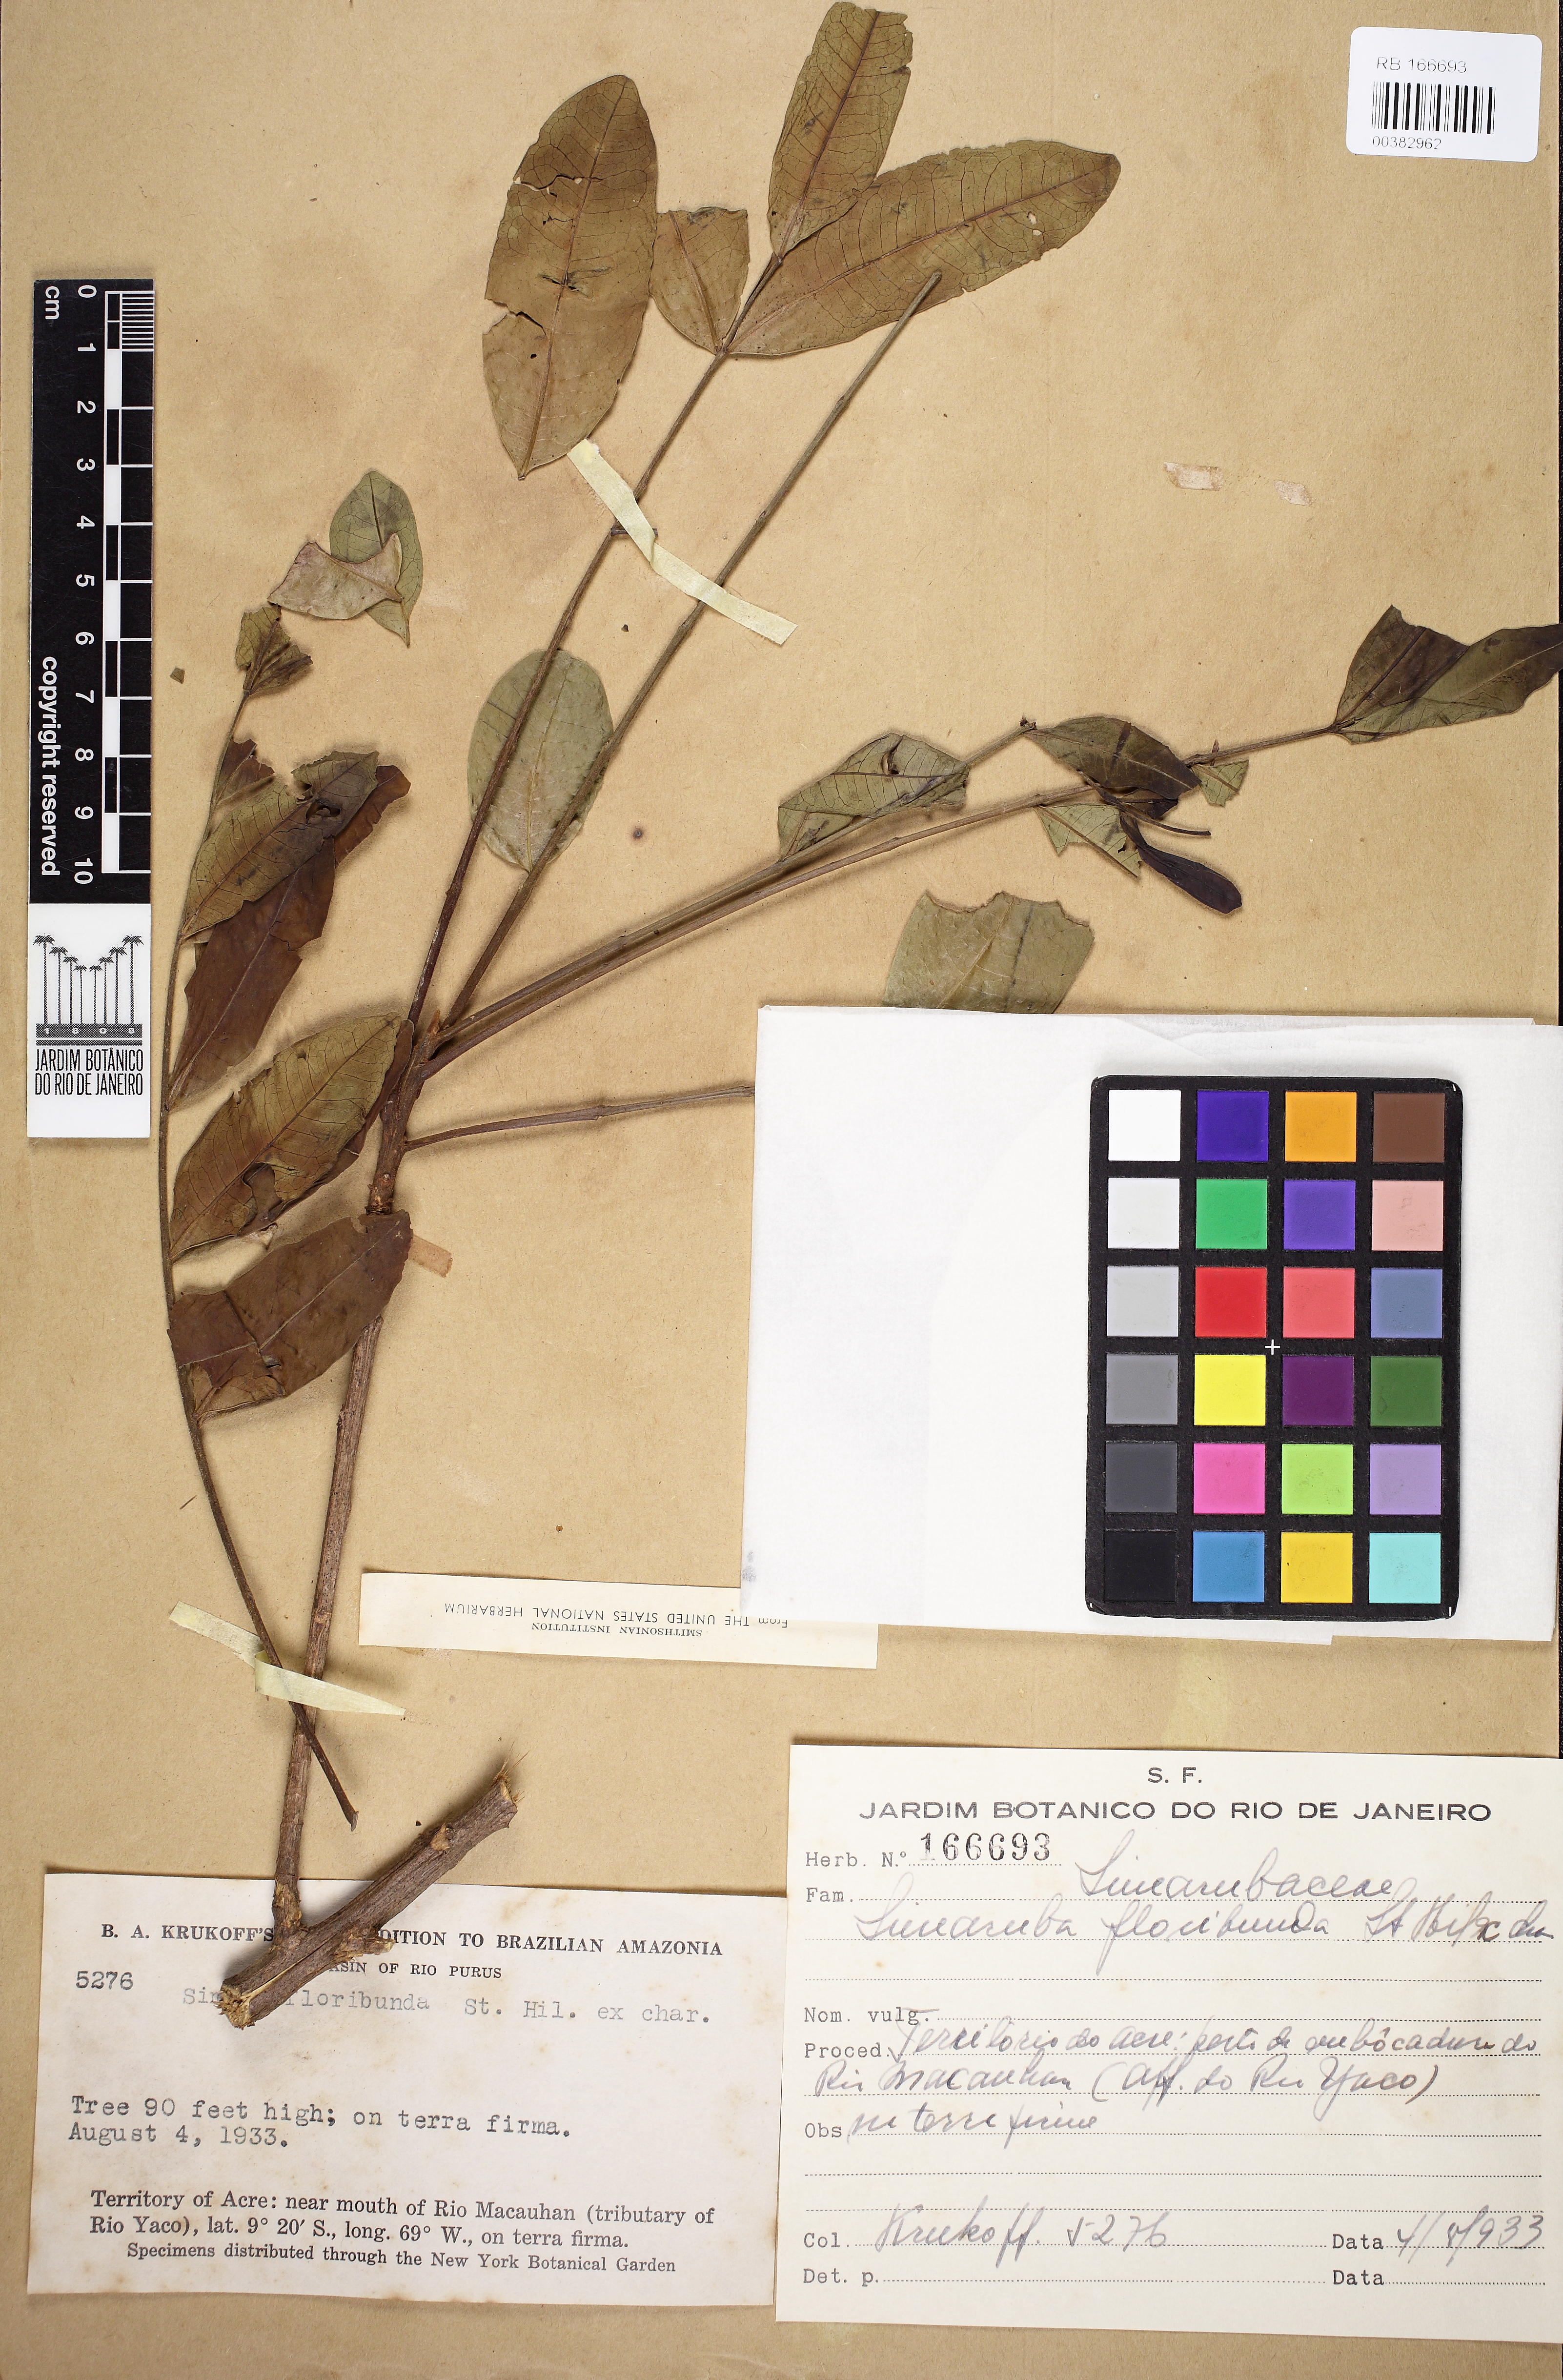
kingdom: Plantae
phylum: Tracheophyta
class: Magnoliopsida
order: Sapindales
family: Simaroubaceae
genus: Homalolepis
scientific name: Homalolepis paraensis
